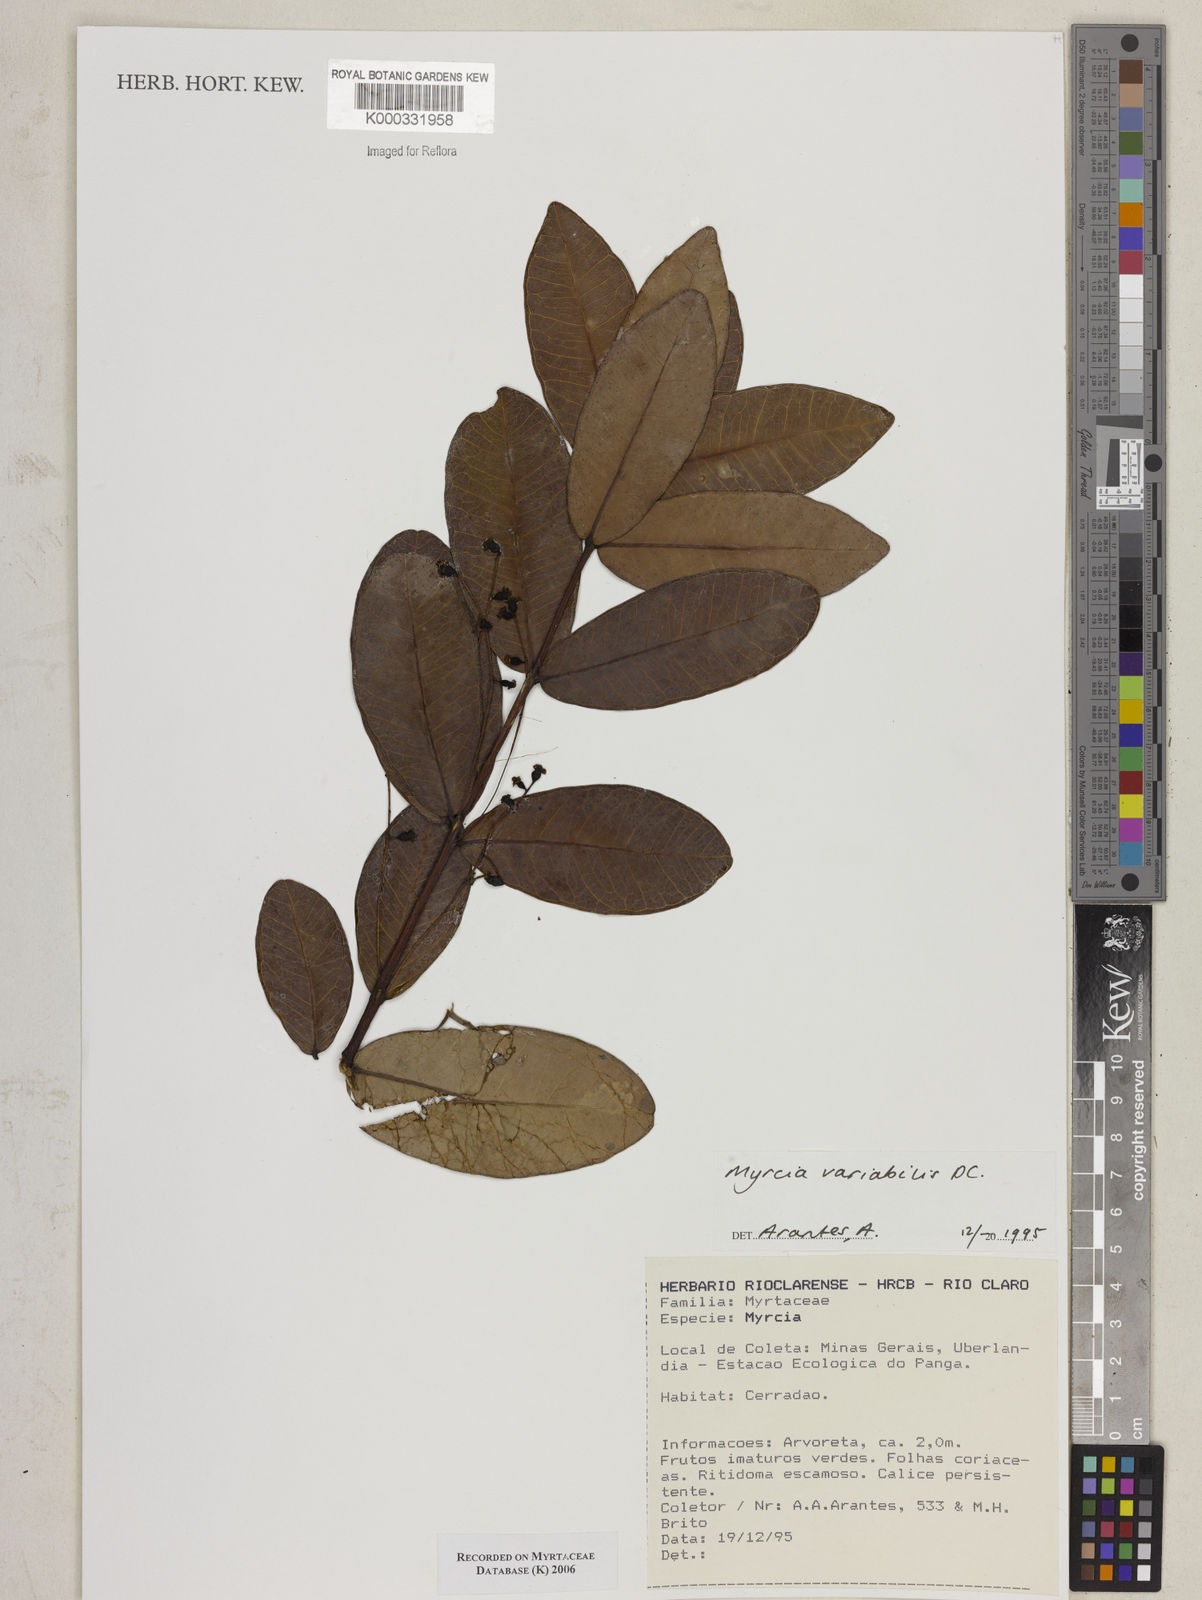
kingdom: Plantae
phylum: Tracheophyta
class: Magnoliopsida
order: Myrtales
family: Myrtaceae
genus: Myrcia
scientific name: Myrcia variabilis
